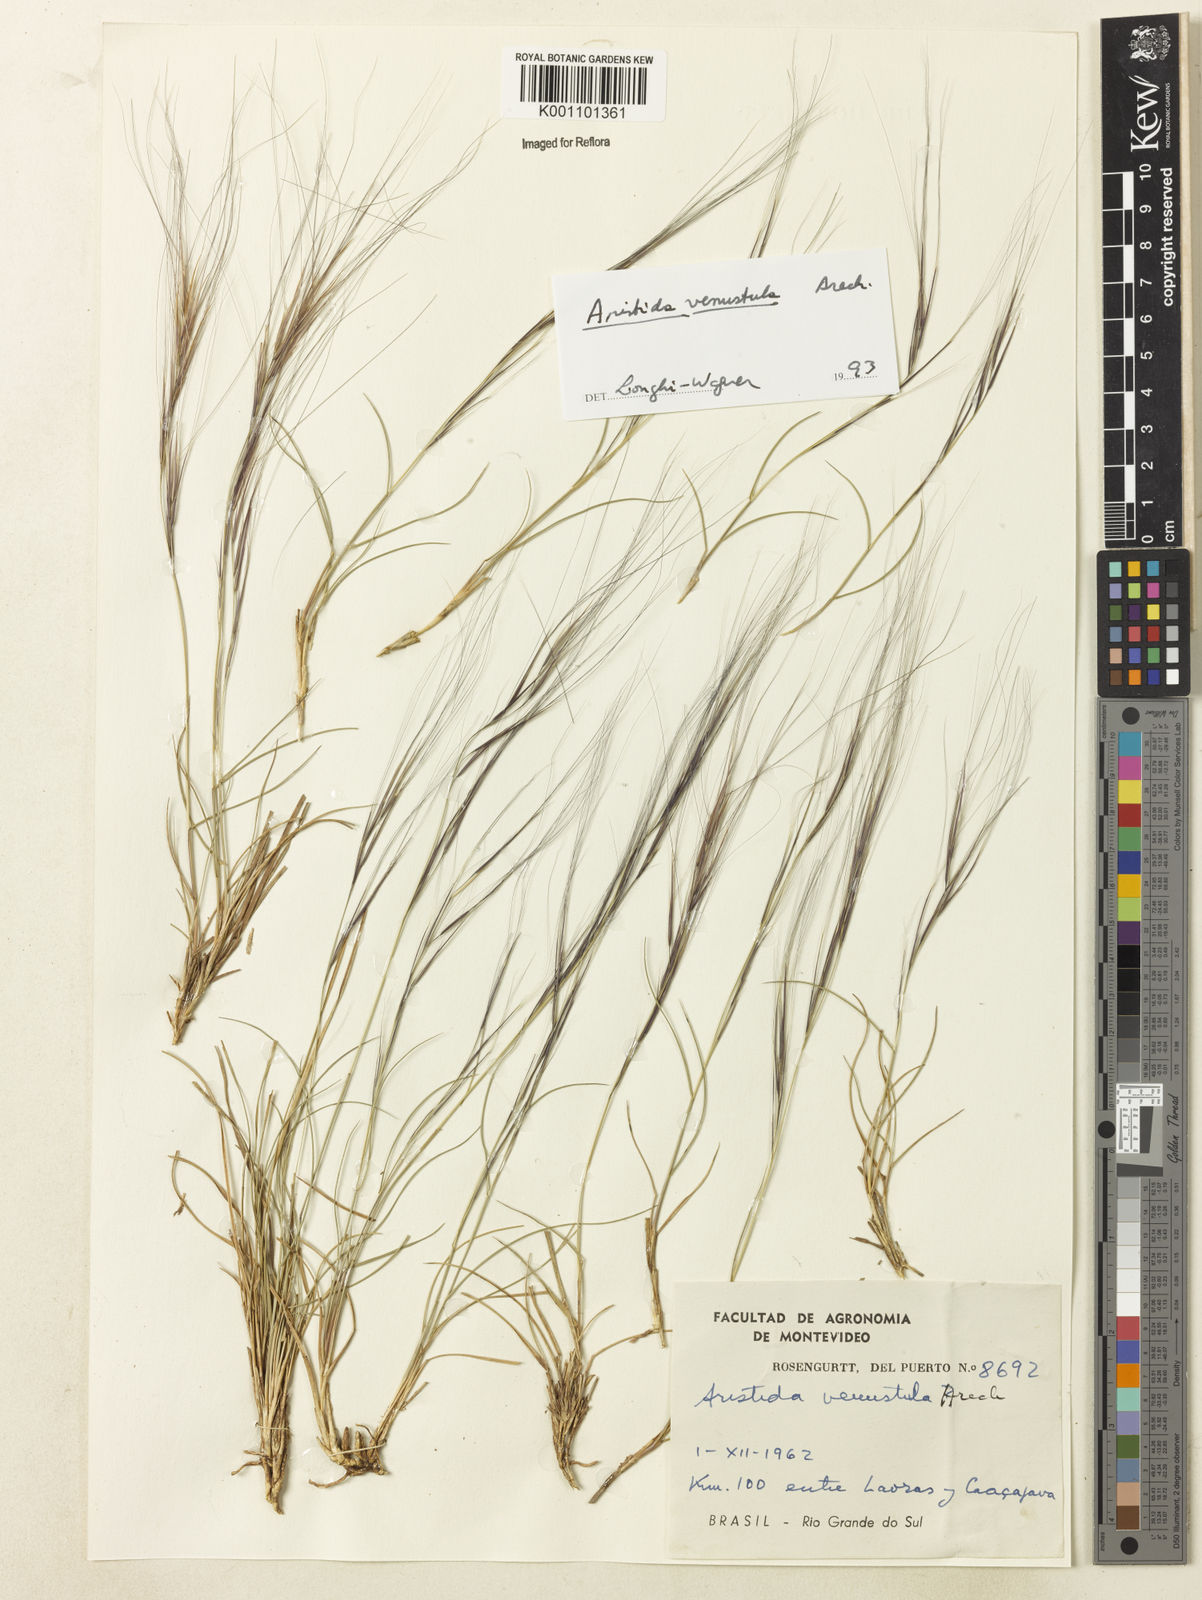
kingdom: Plantae
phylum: Tracheophyta
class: Liliopsida
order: Poales
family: Poaceae
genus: Aristida
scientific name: Aristida venustula
